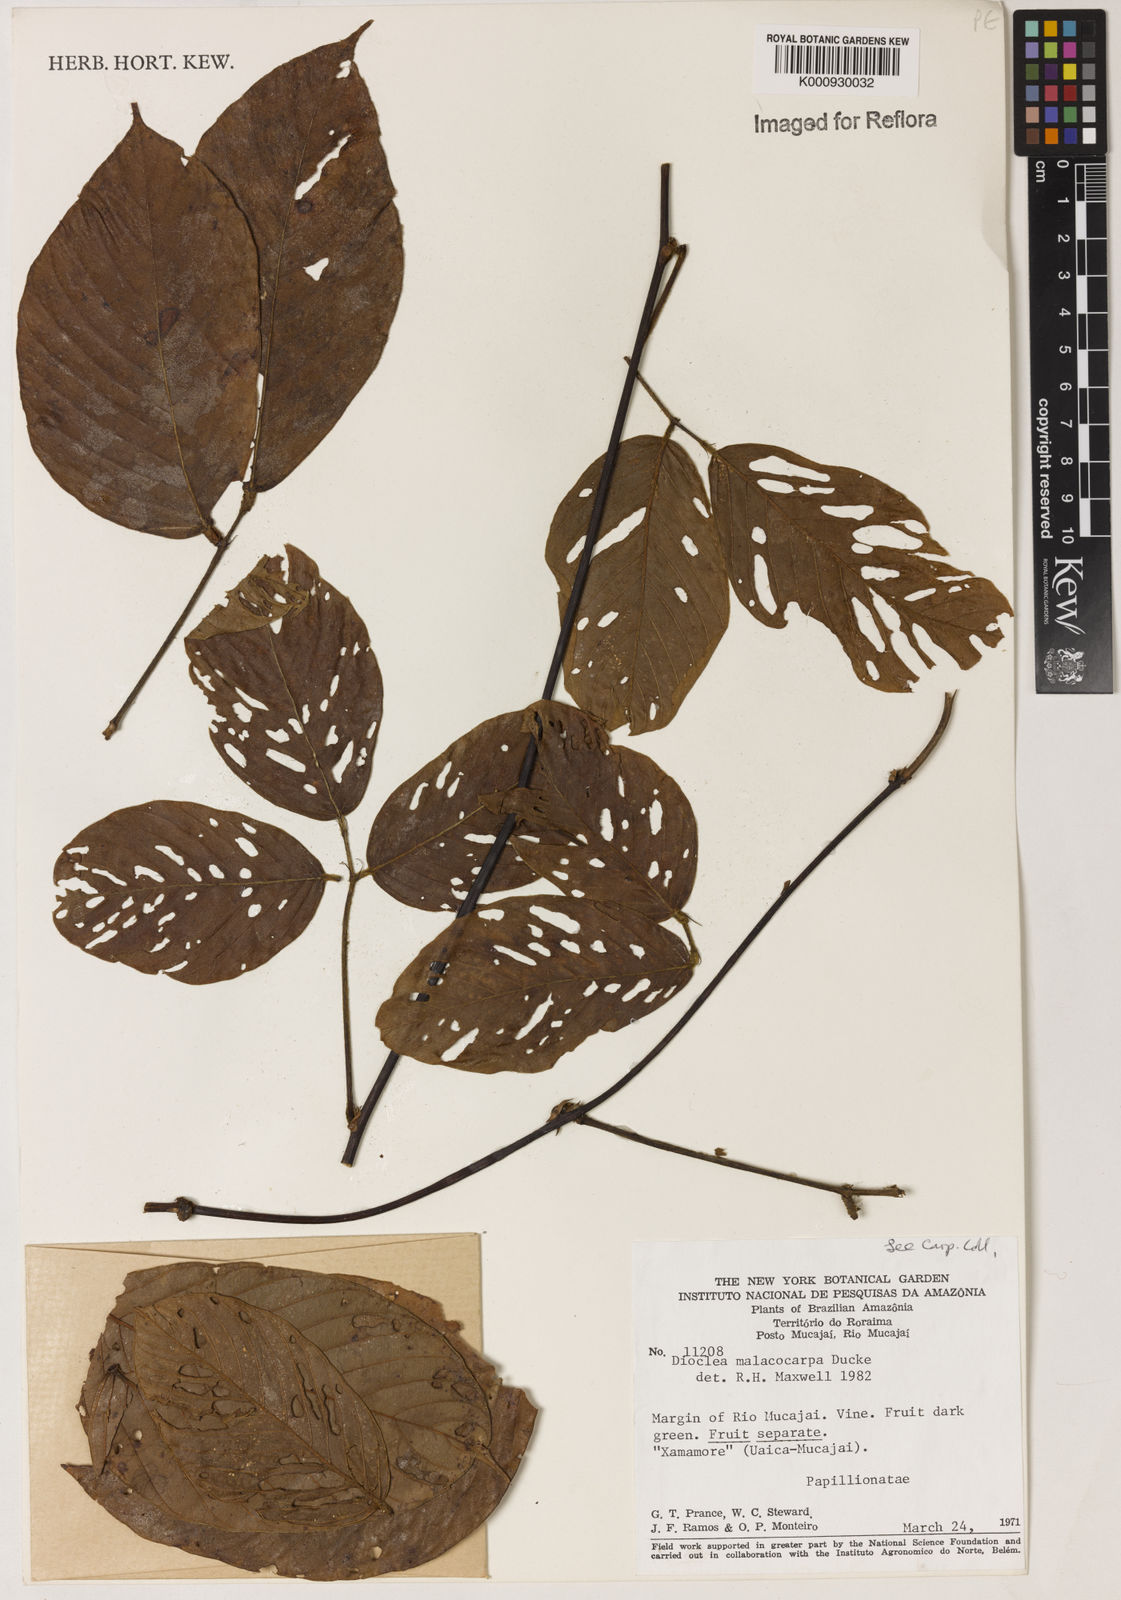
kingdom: Plantae
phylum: Tracheophyta
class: Magnoliopsida
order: Fabales
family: Fabaceae
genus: Macropsychanthus
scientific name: Macropsychanthus malacocarpus
